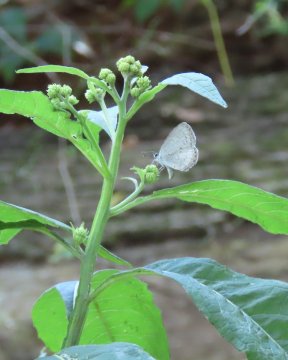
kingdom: Animalia
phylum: Arthropoda
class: Insecta
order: Lepidoptera
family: Lycaenidae
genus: Cyaniris
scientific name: Cyaniris neglecta
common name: Summer Azure
